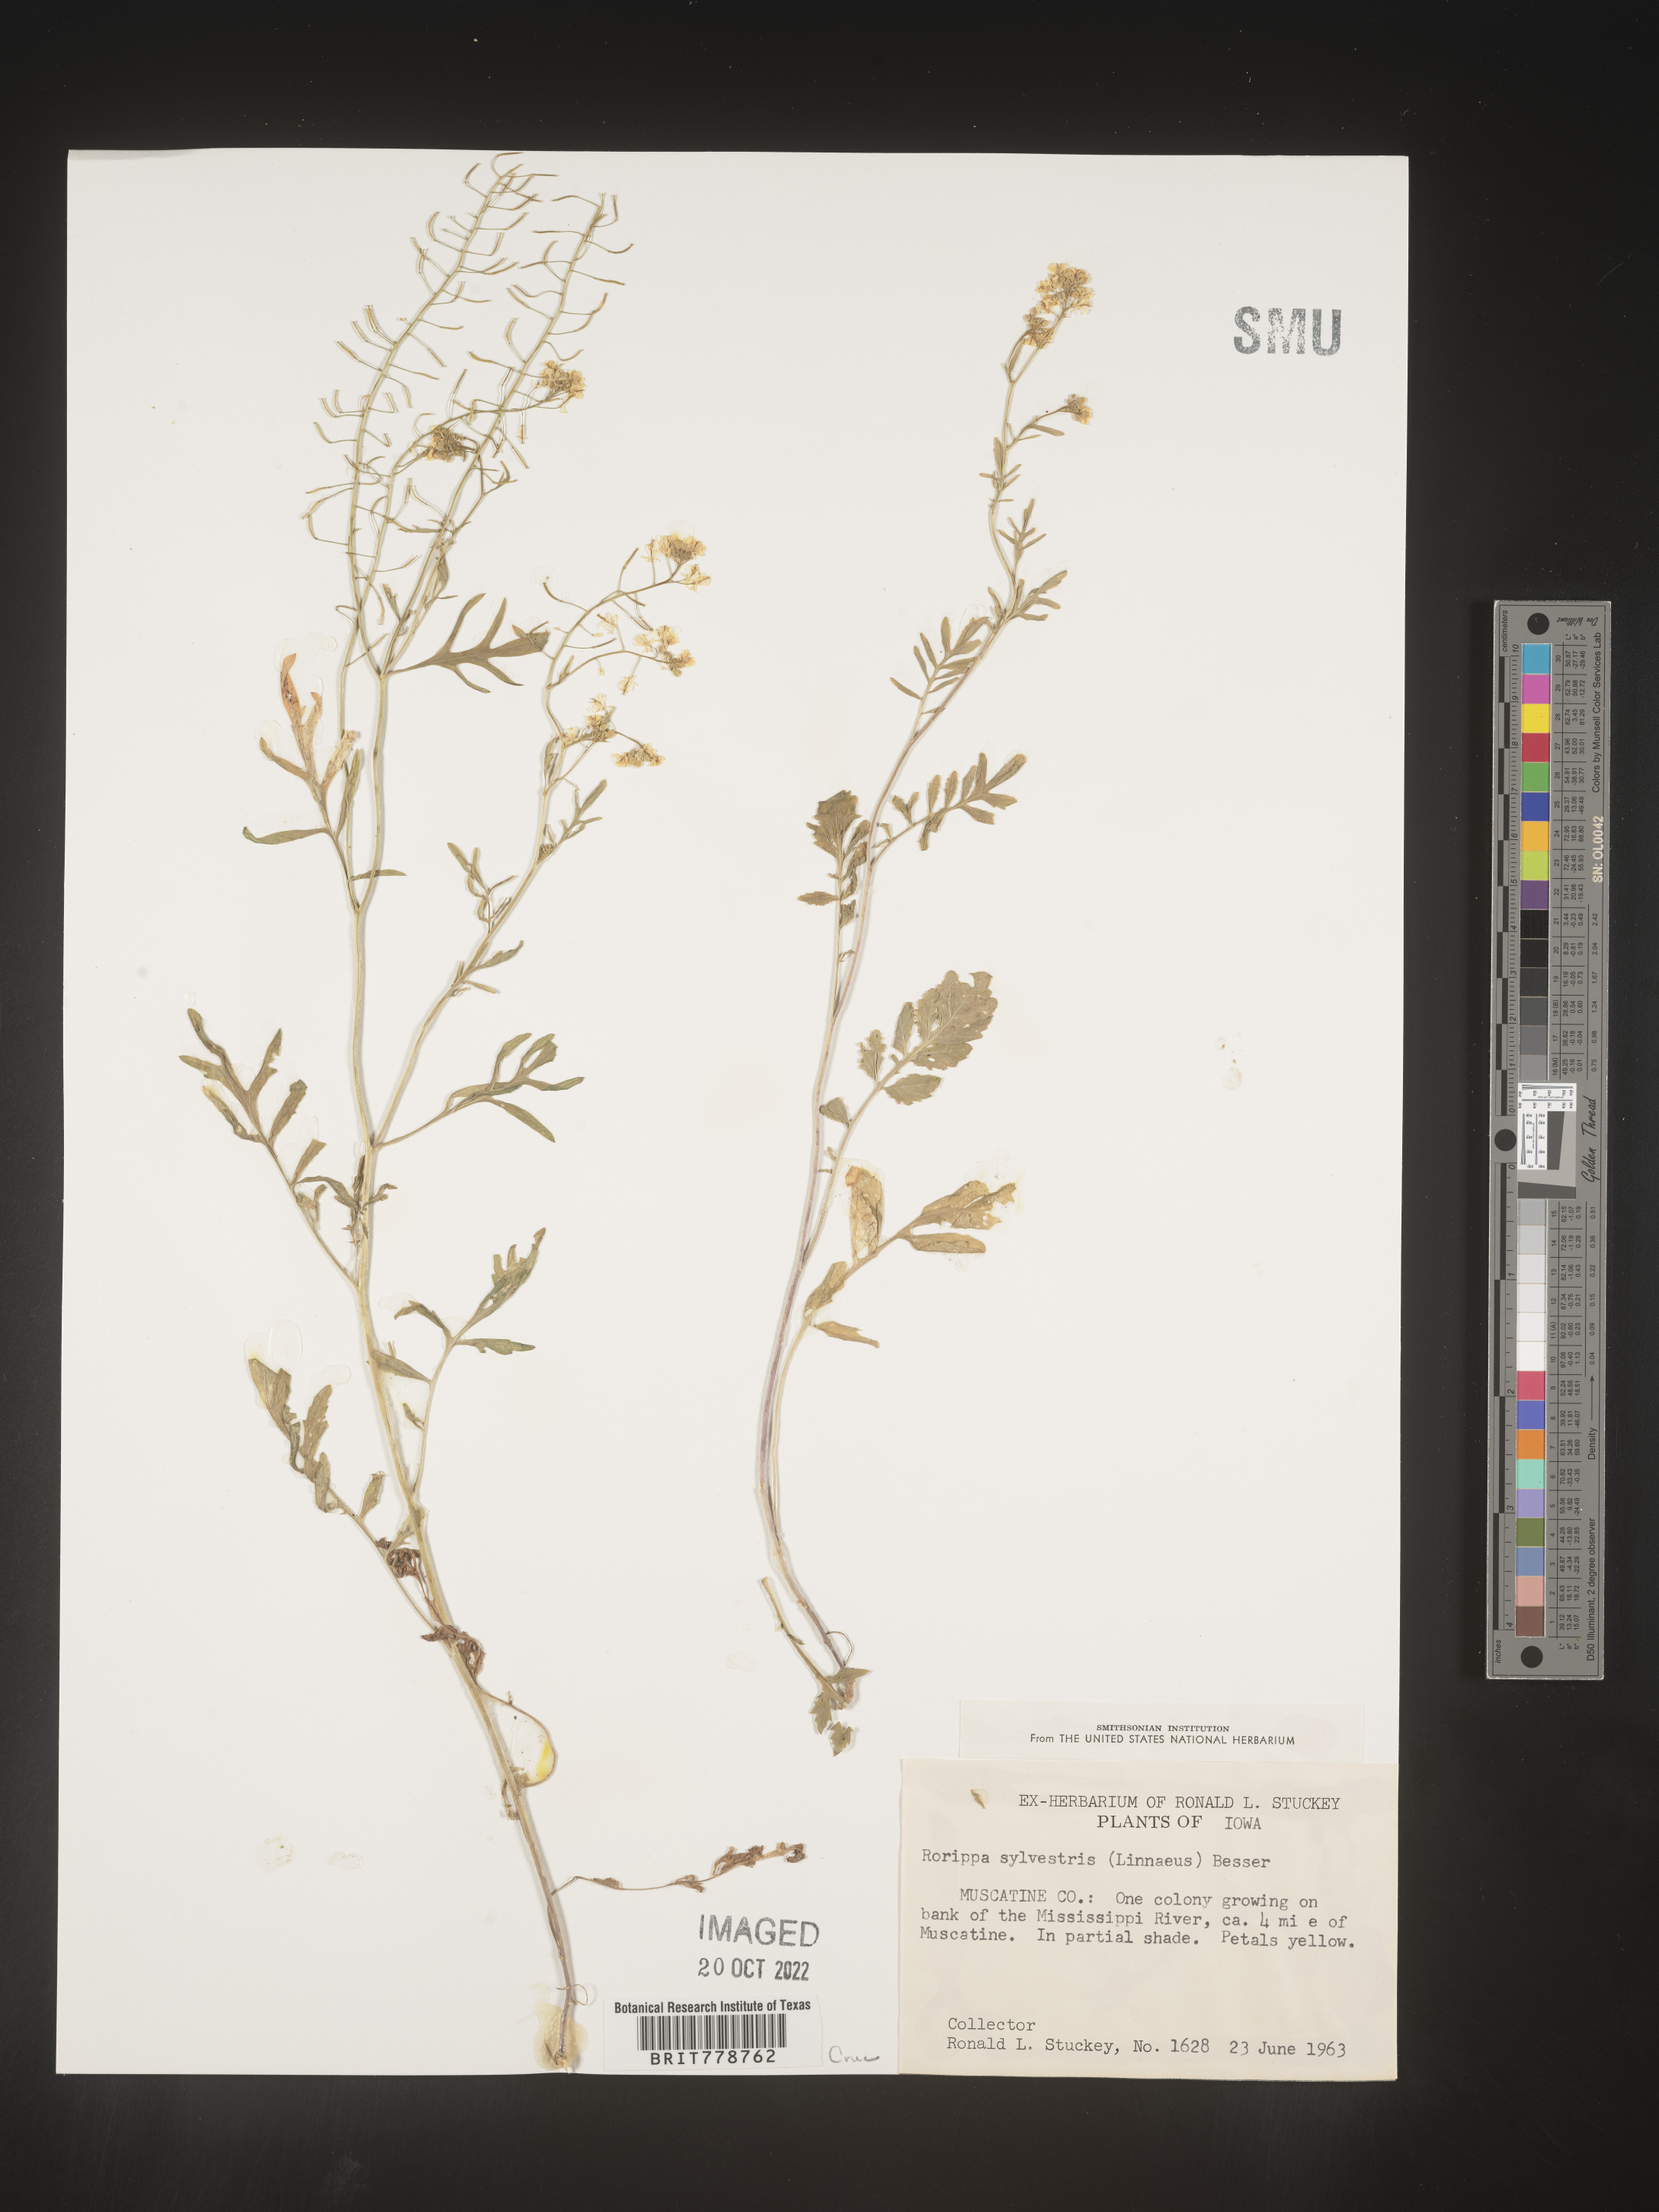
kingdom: Plantae
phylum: Tracheophyta
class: Magnoliopsida
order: Brassicales
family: Brassicaceae
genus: Rorippa
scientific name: Rorippa sylvestris
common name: Creeping yellowcress
